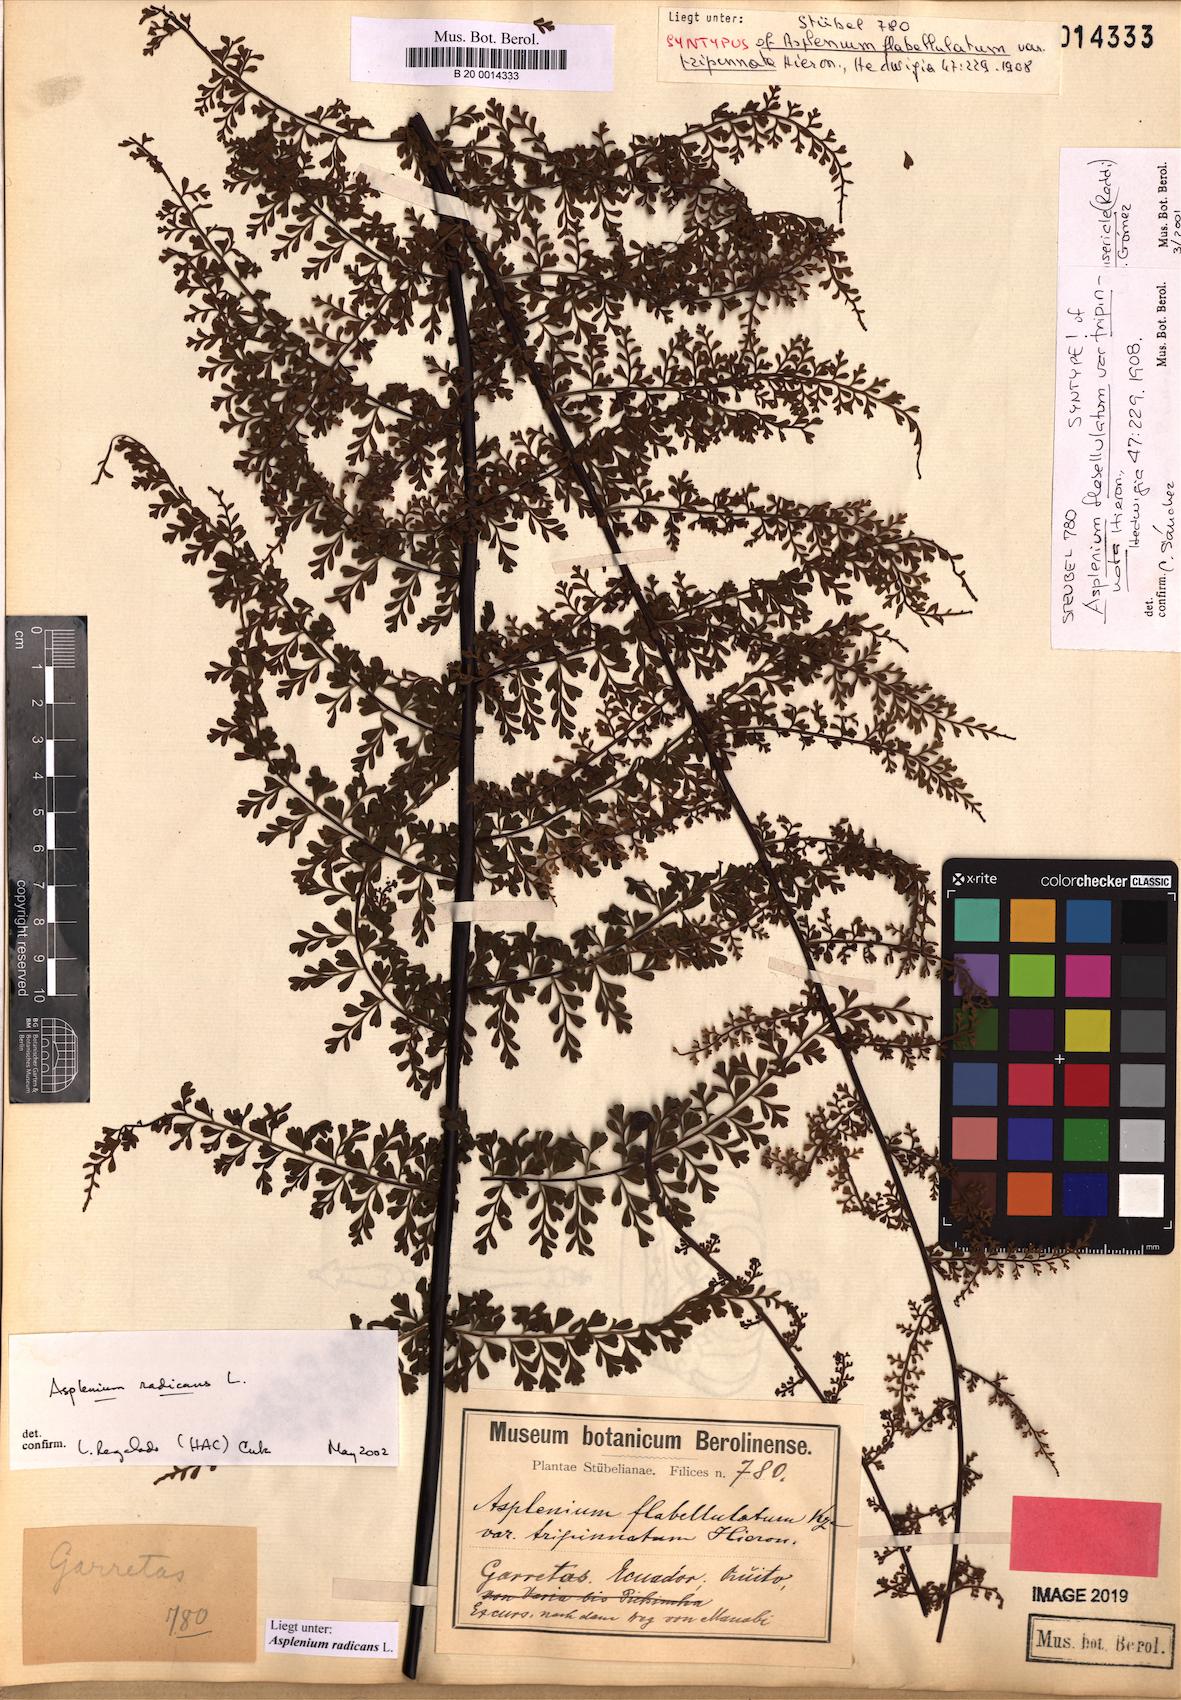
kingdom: Plantae
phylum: Tracheophyta
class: Polypodiopsida
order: Polypodiales
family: Aspleniaceae
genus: Asplenium
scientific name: Asplenium radicans
